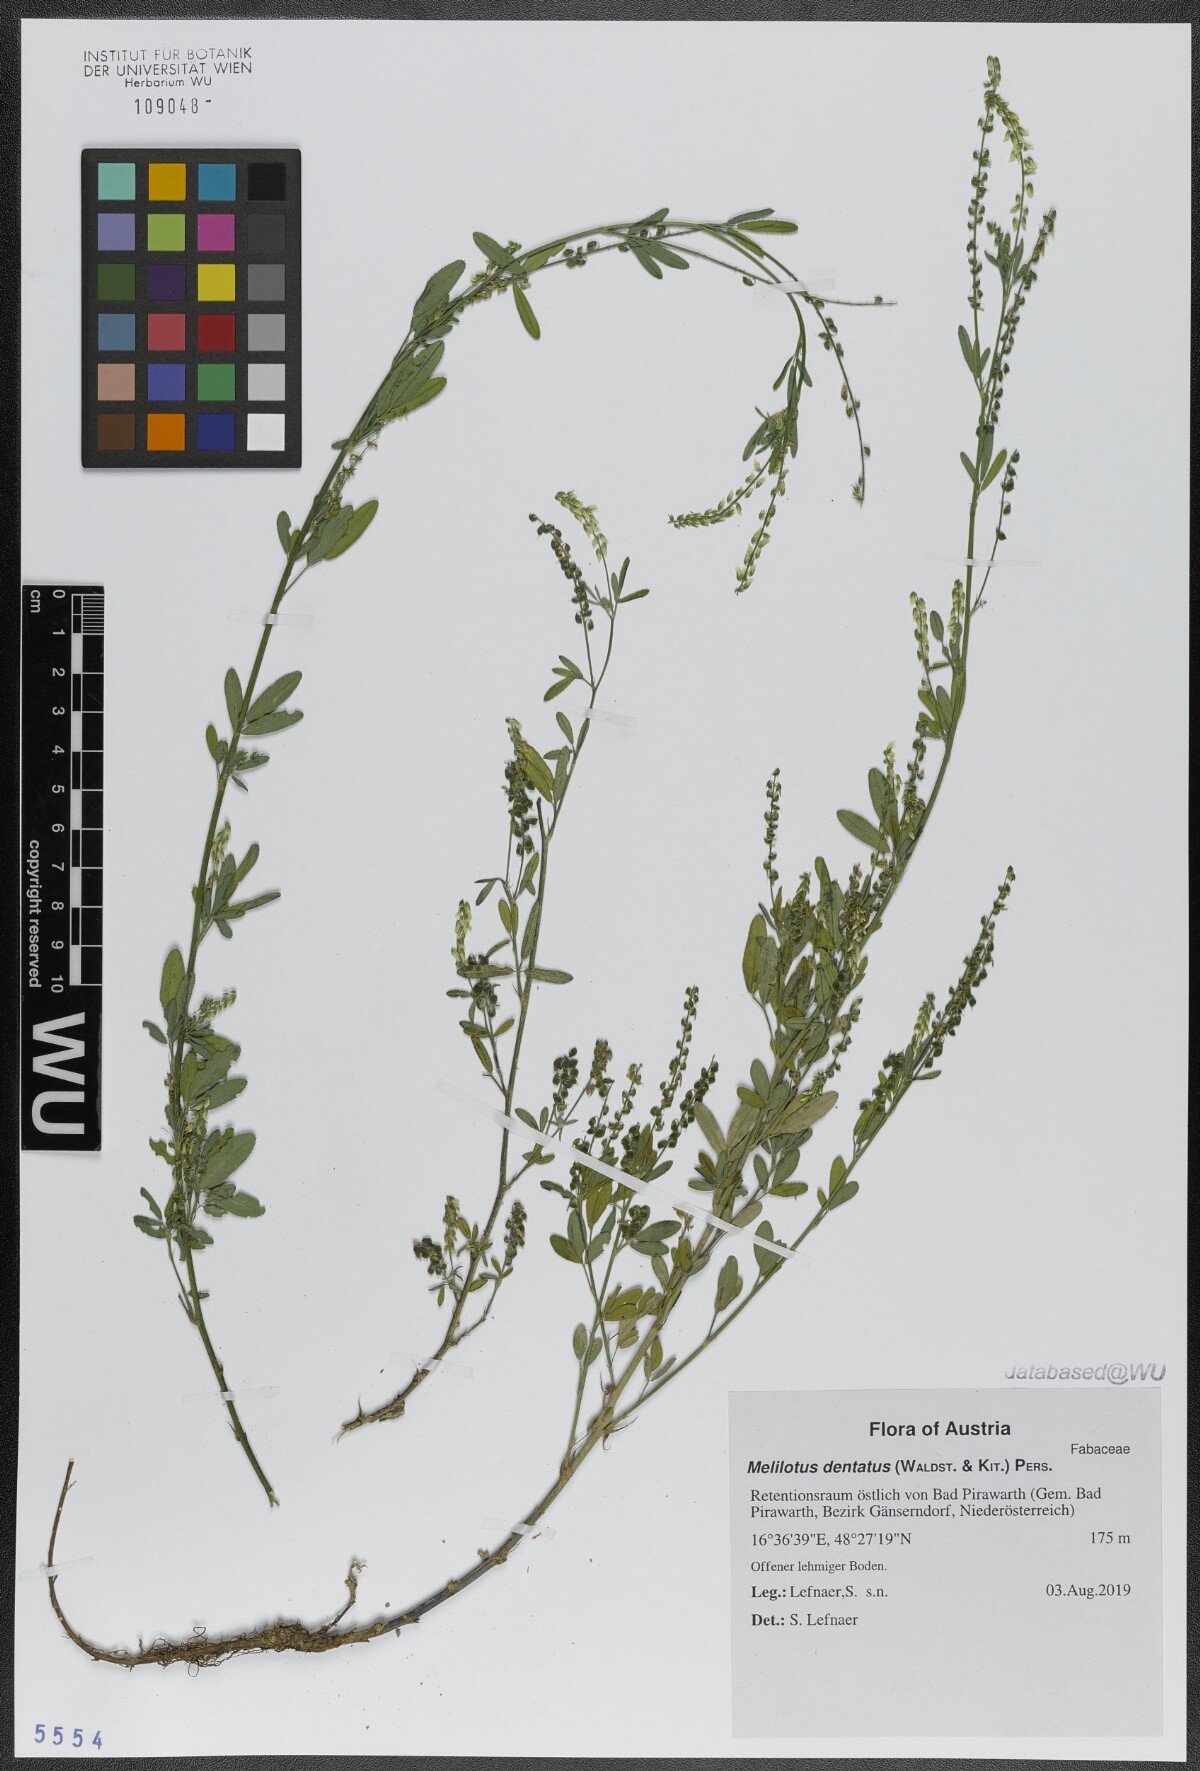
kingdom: Plantae
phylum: Tracheophyta
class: Magnoliopsida
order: Fabales
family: Fabaceae
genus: Melilotus
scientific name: Melilotus dentatus
